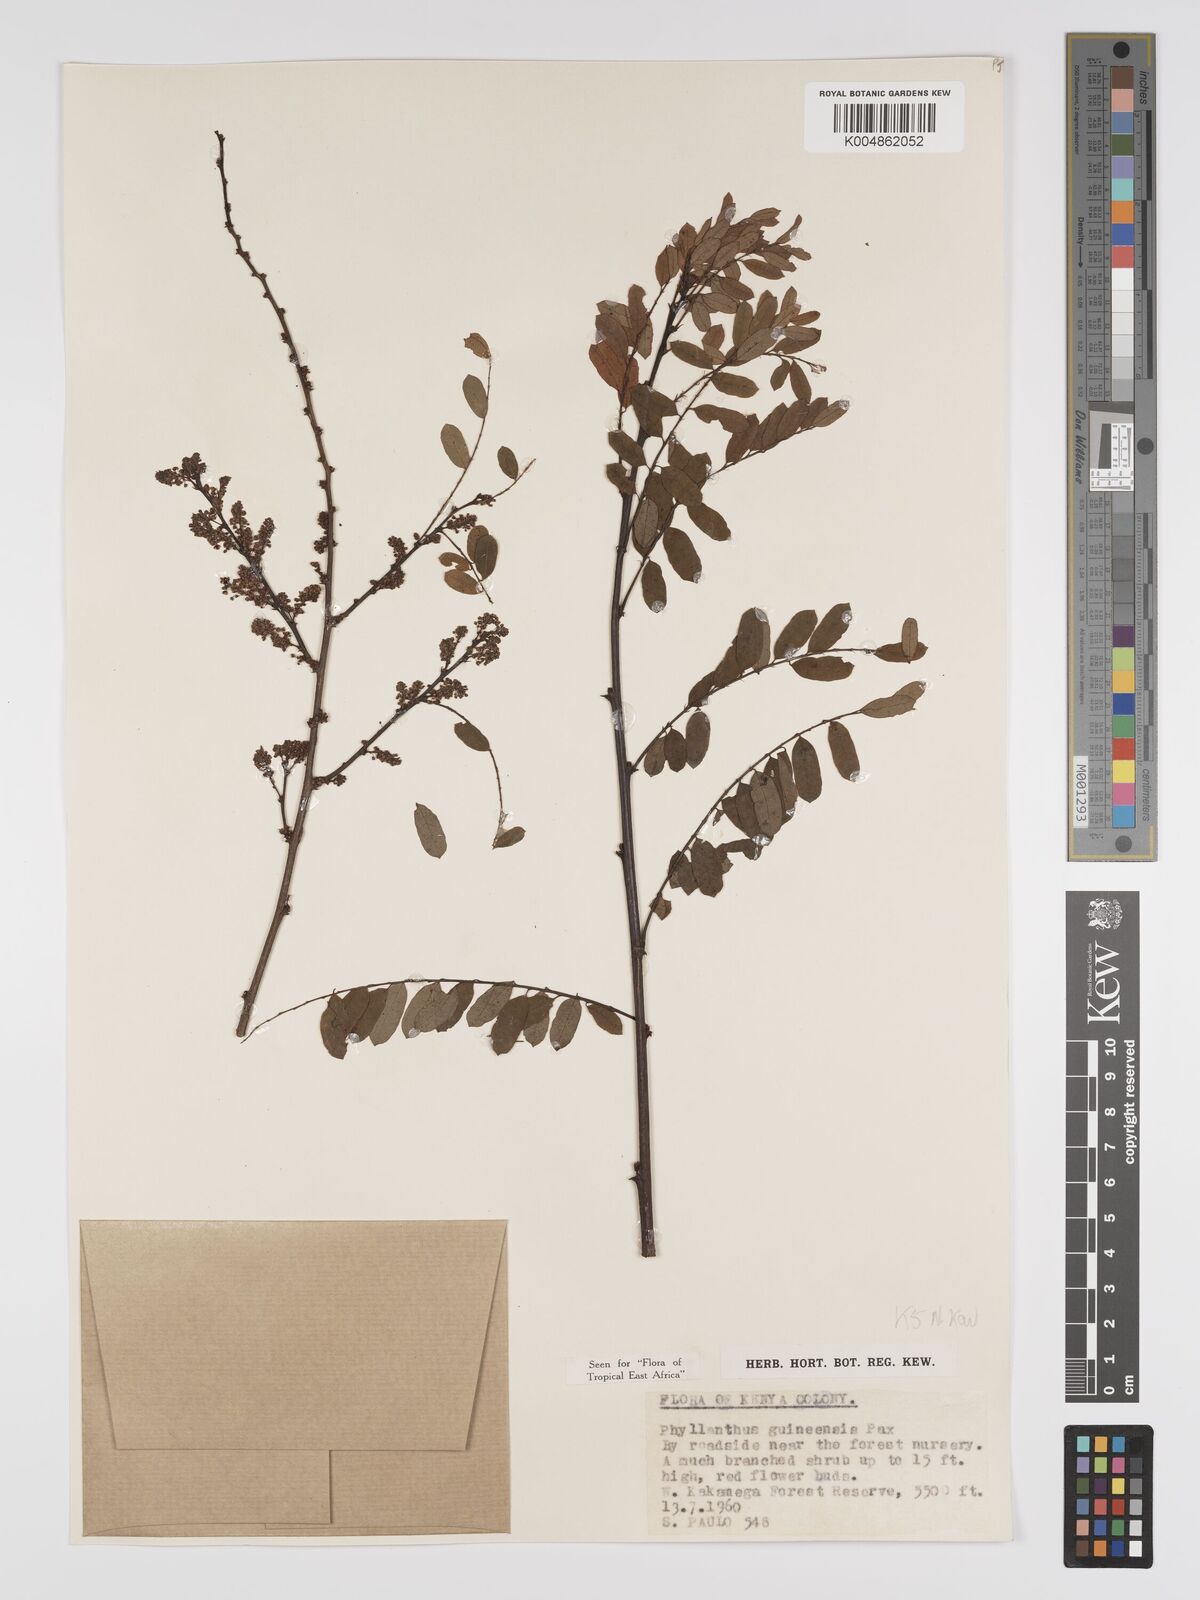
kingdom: Plantae
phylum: Tracheophyta
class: Magnoliopsida
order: Malpighiales
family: Phyllanthaceae
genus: Phyllanthus
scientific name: Phyllanthus ovalifolius
